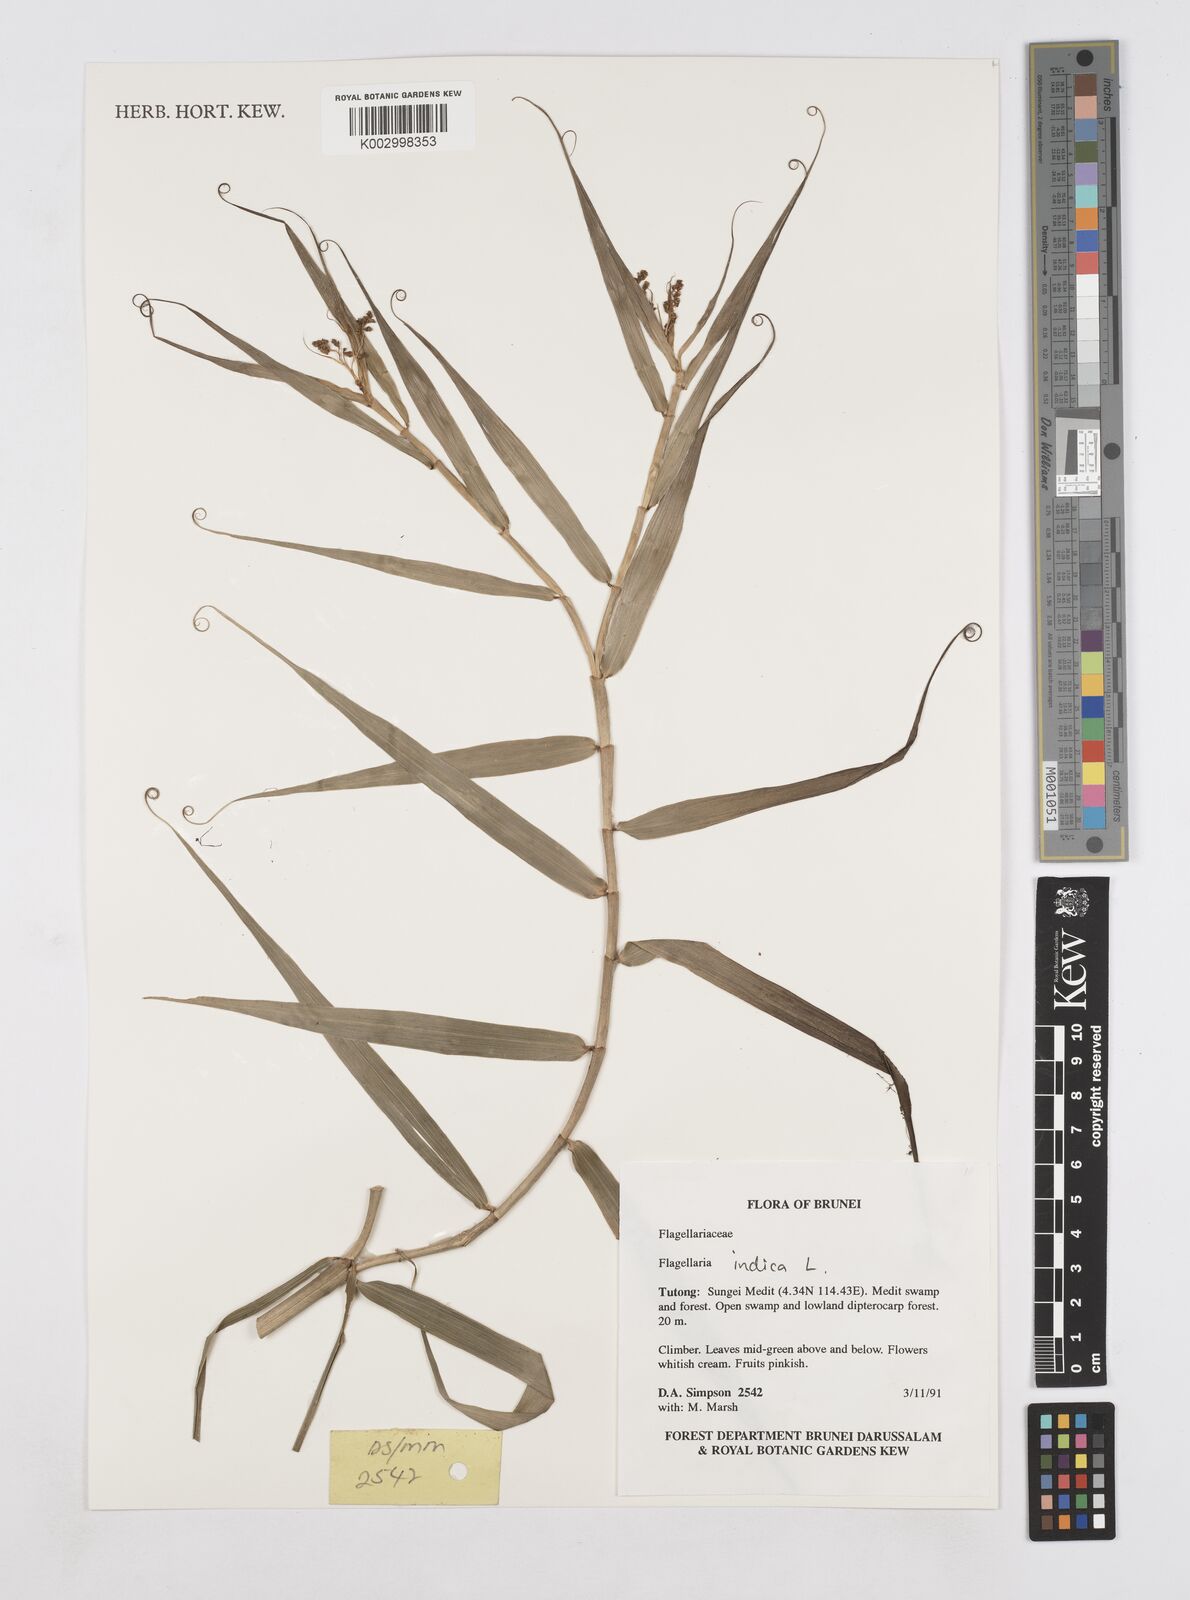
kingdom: Plantae
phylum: Tracheophyta
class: Liliopsida
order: Poales
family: Flagellariaceae
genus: Flagellaria
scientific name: Flagellaria indica
